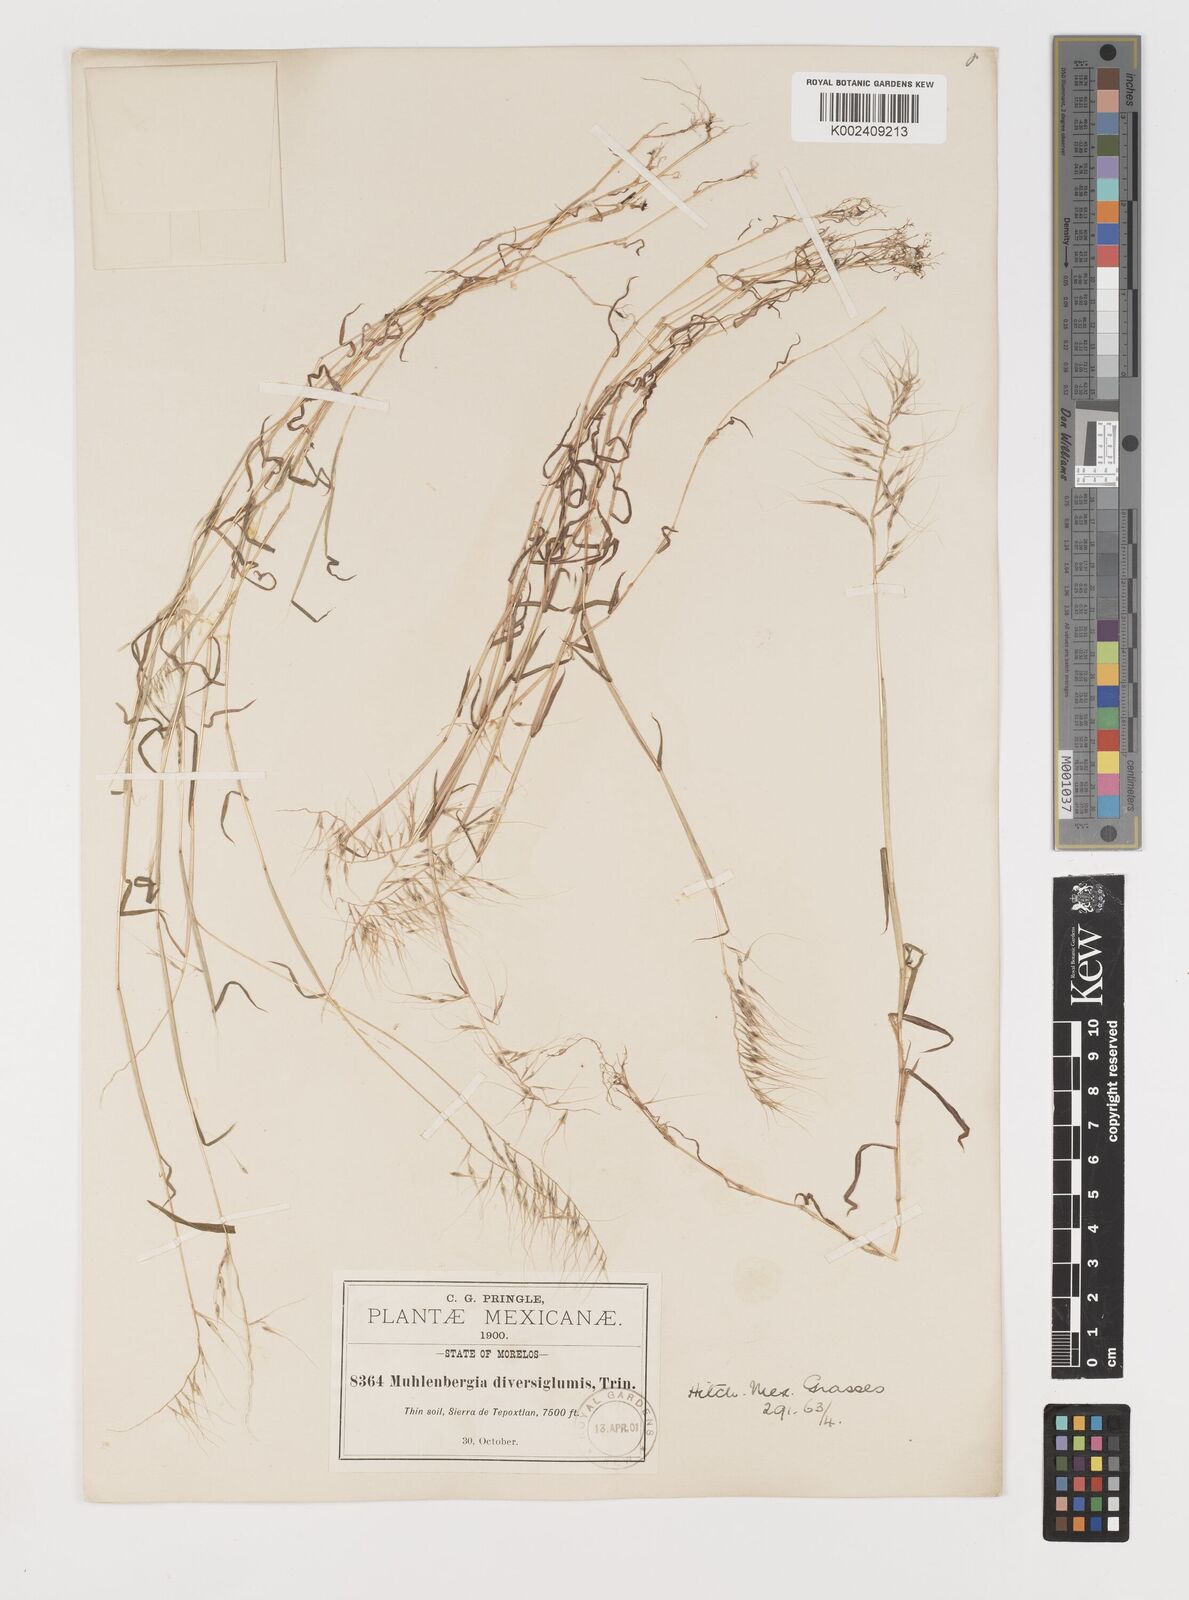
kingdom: Plantae
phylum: Tracheophyta
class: Liliopsida
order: Poales
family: Poaceae
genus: Muhlenbergia
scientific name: Muhlenbergia diversiglumis
